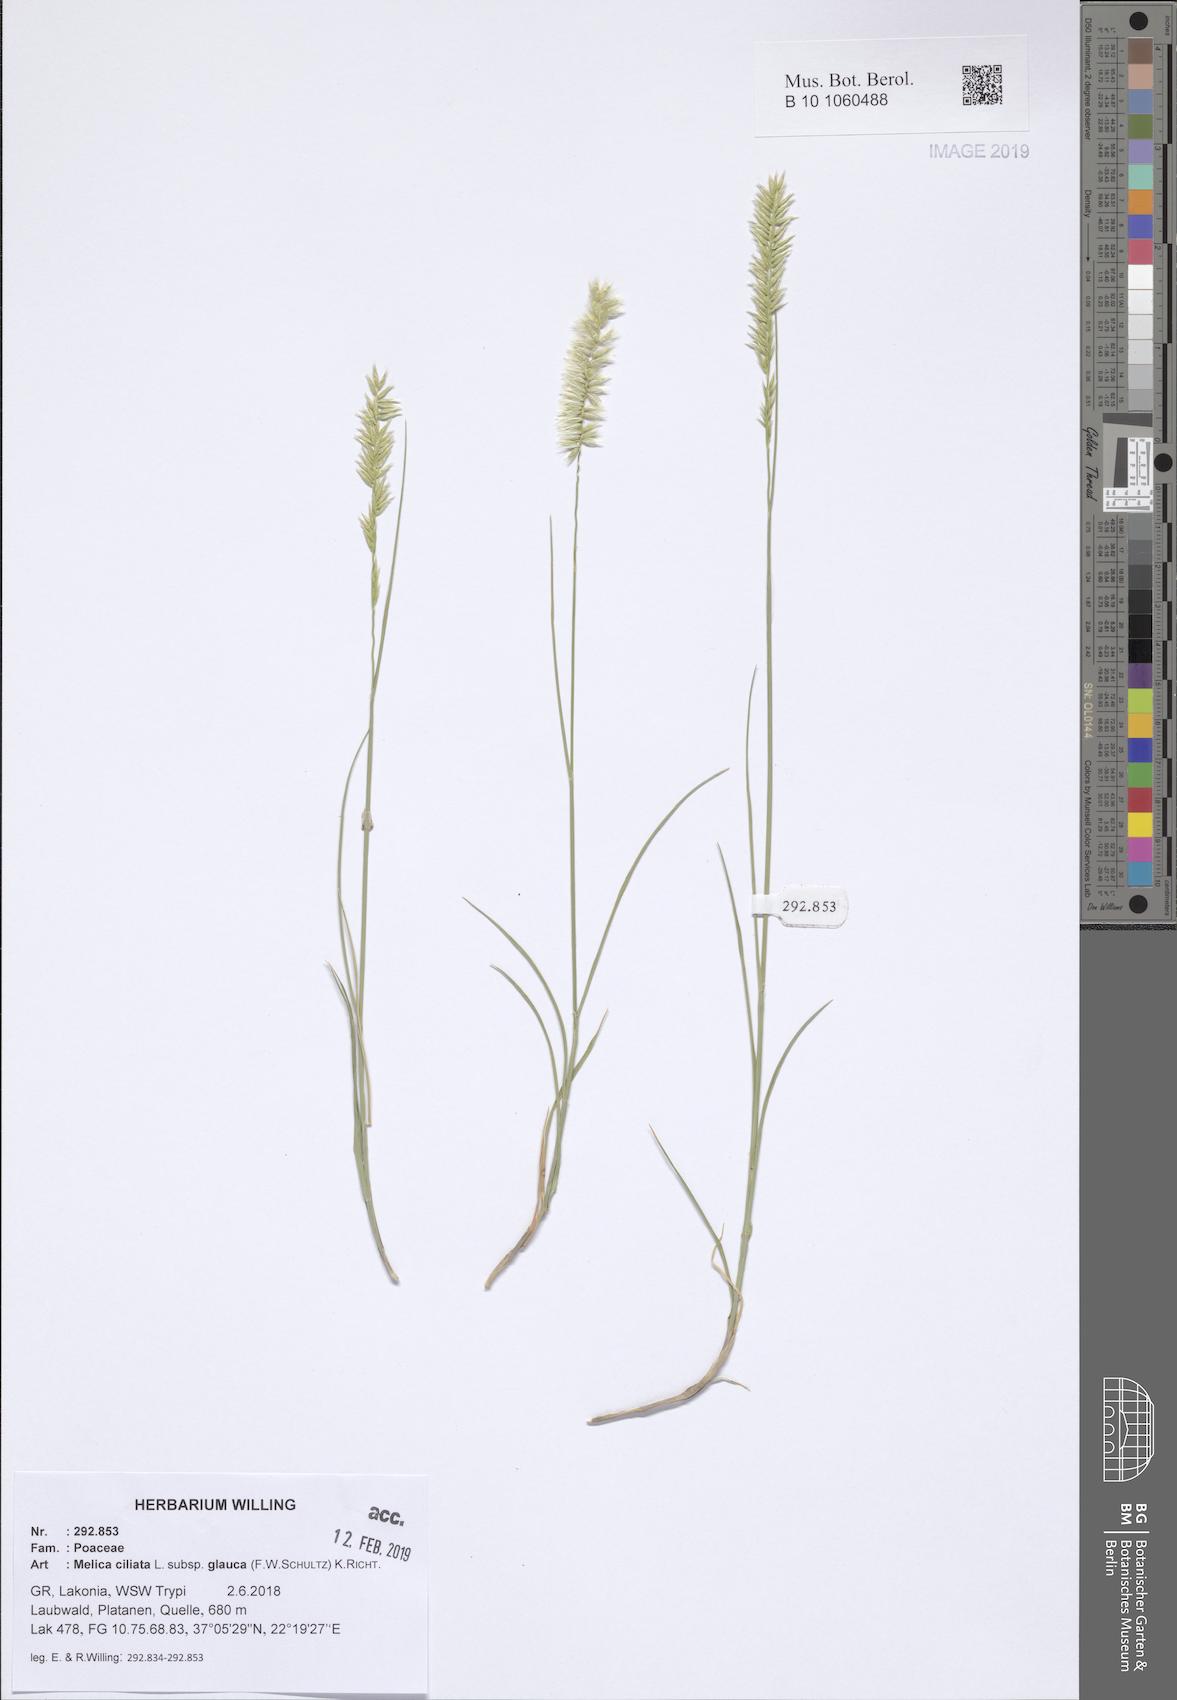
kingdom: Plantae
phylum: Tracheophyta
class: Liliopsida
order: Poales
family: Poaceae
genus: Melica
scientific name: Melica ciliata
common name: Hairy melicgrass
